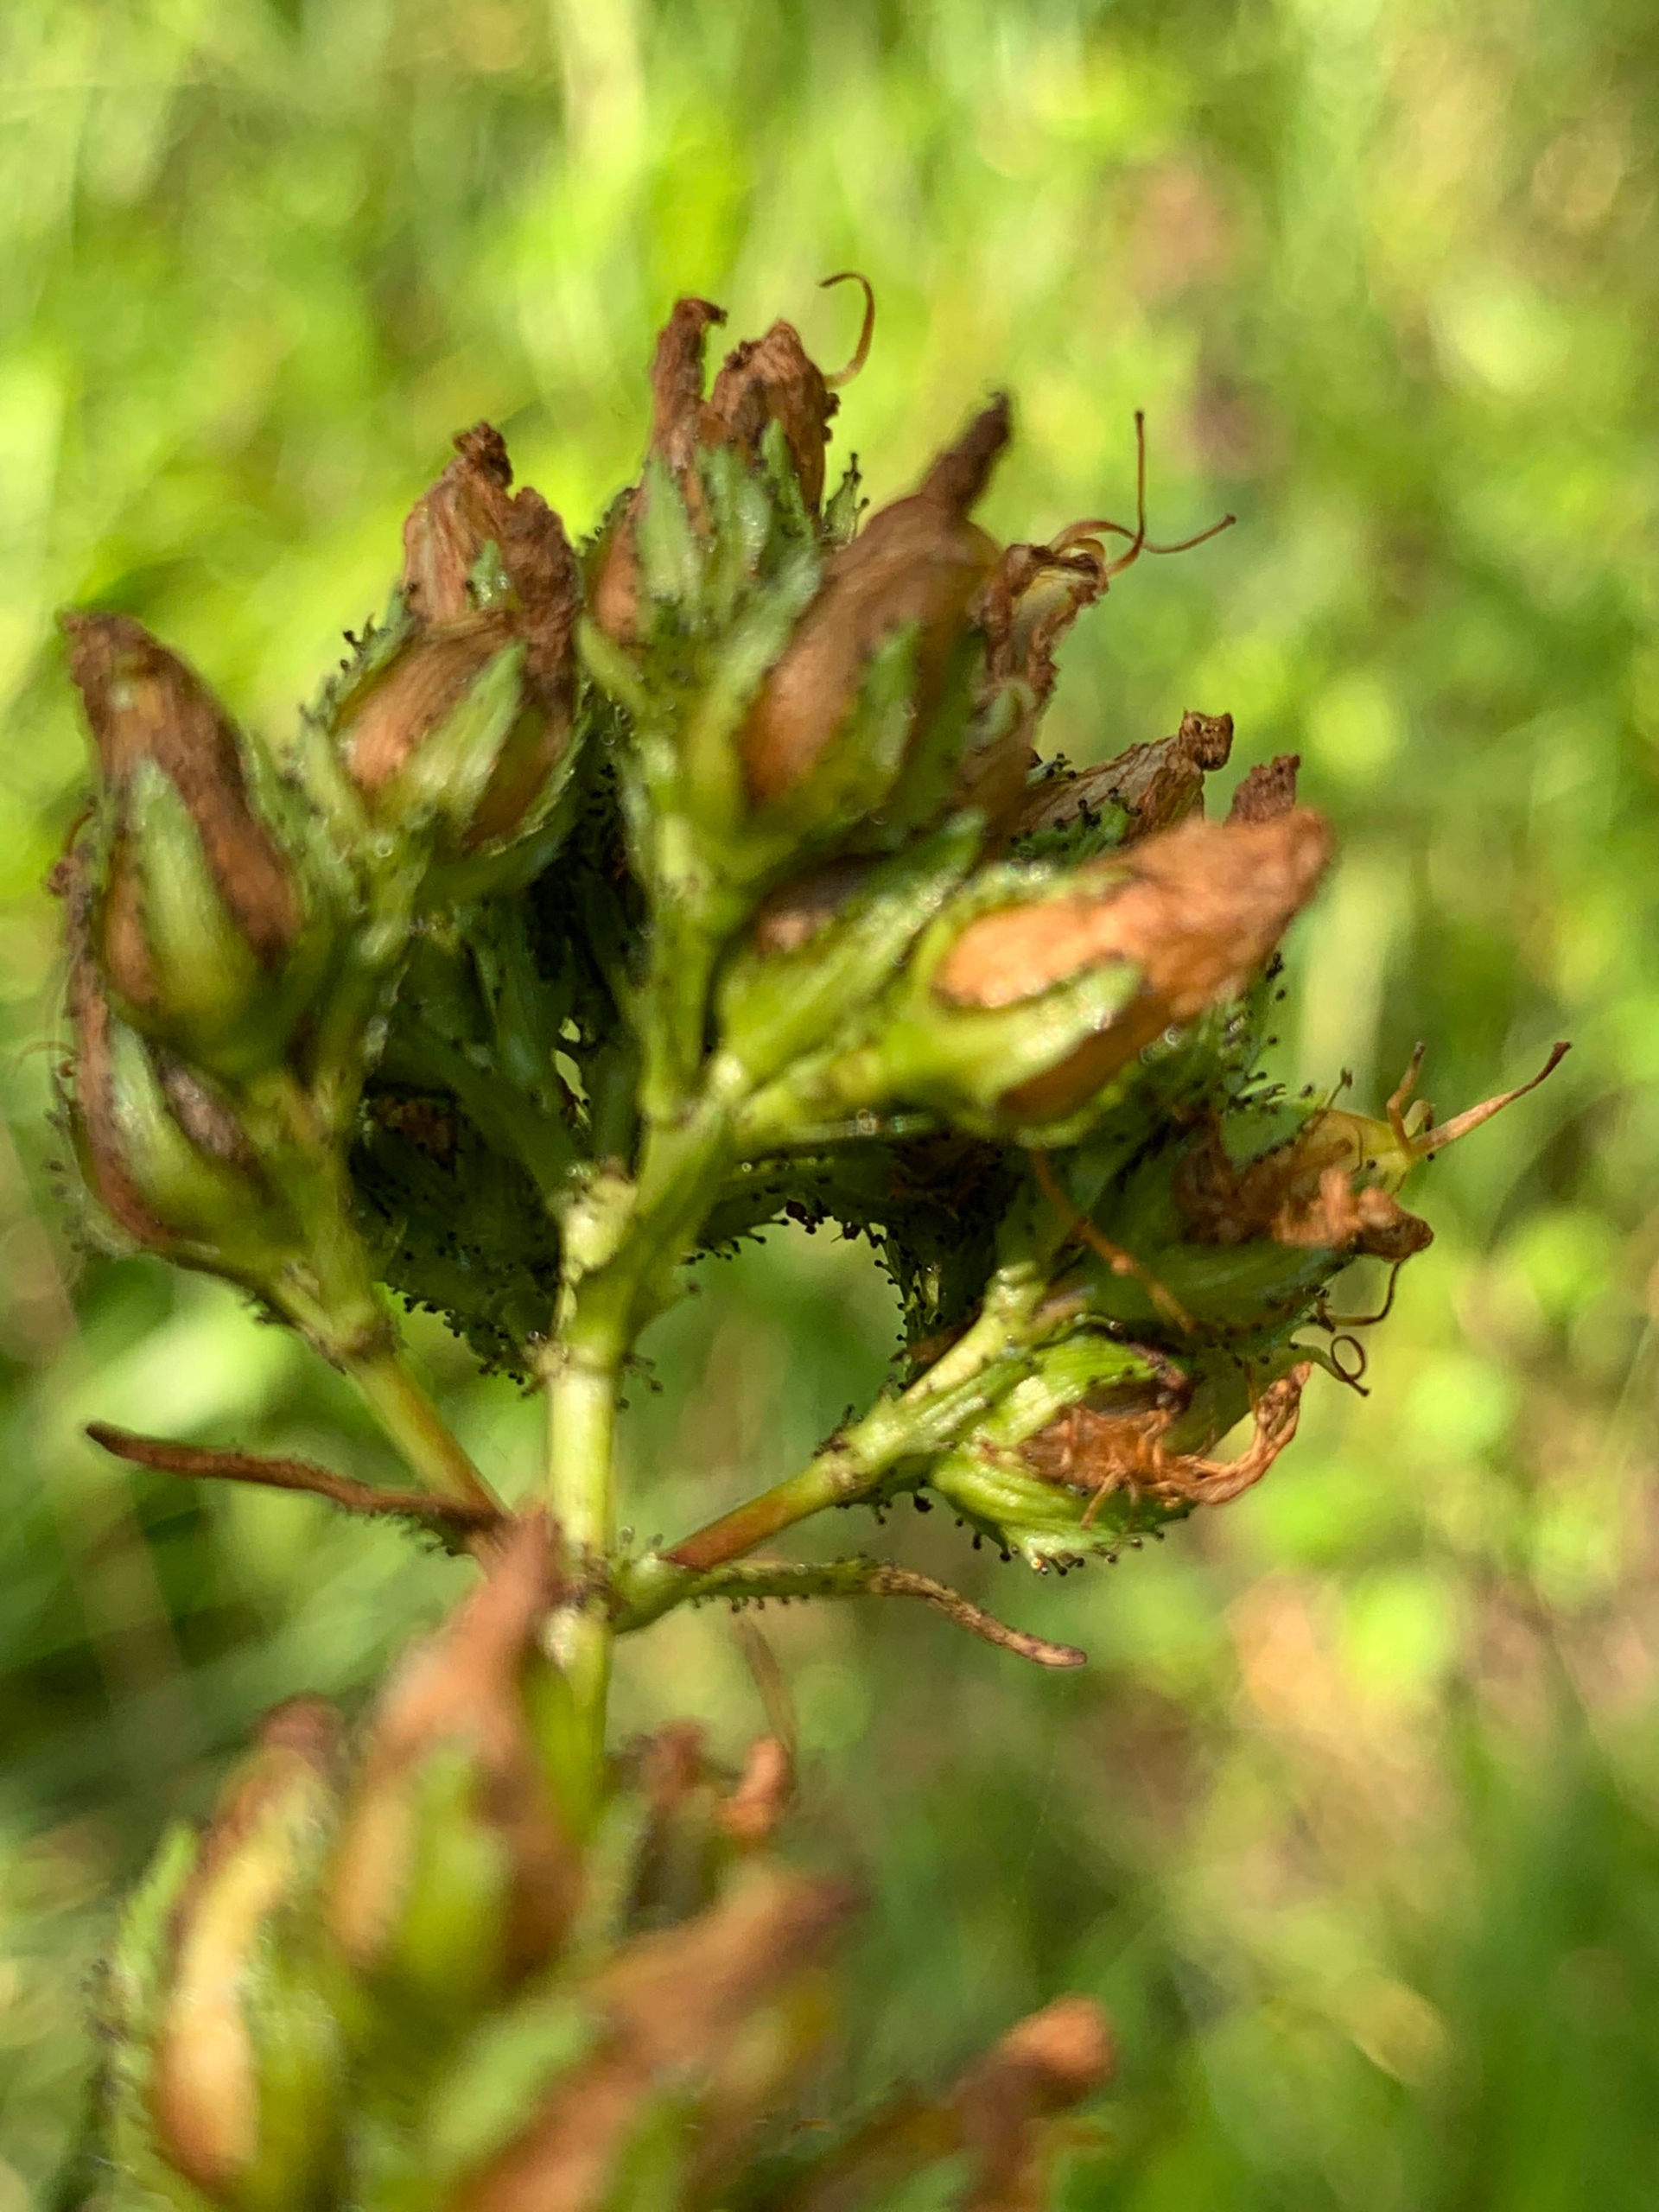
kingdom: Plantae
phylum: Tracheophyta
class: Magnoliopsida
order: Malpighiales
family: Hypericaceae
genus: Hypericum
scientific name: Hypericum montanum
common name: Bjerg-perikon
